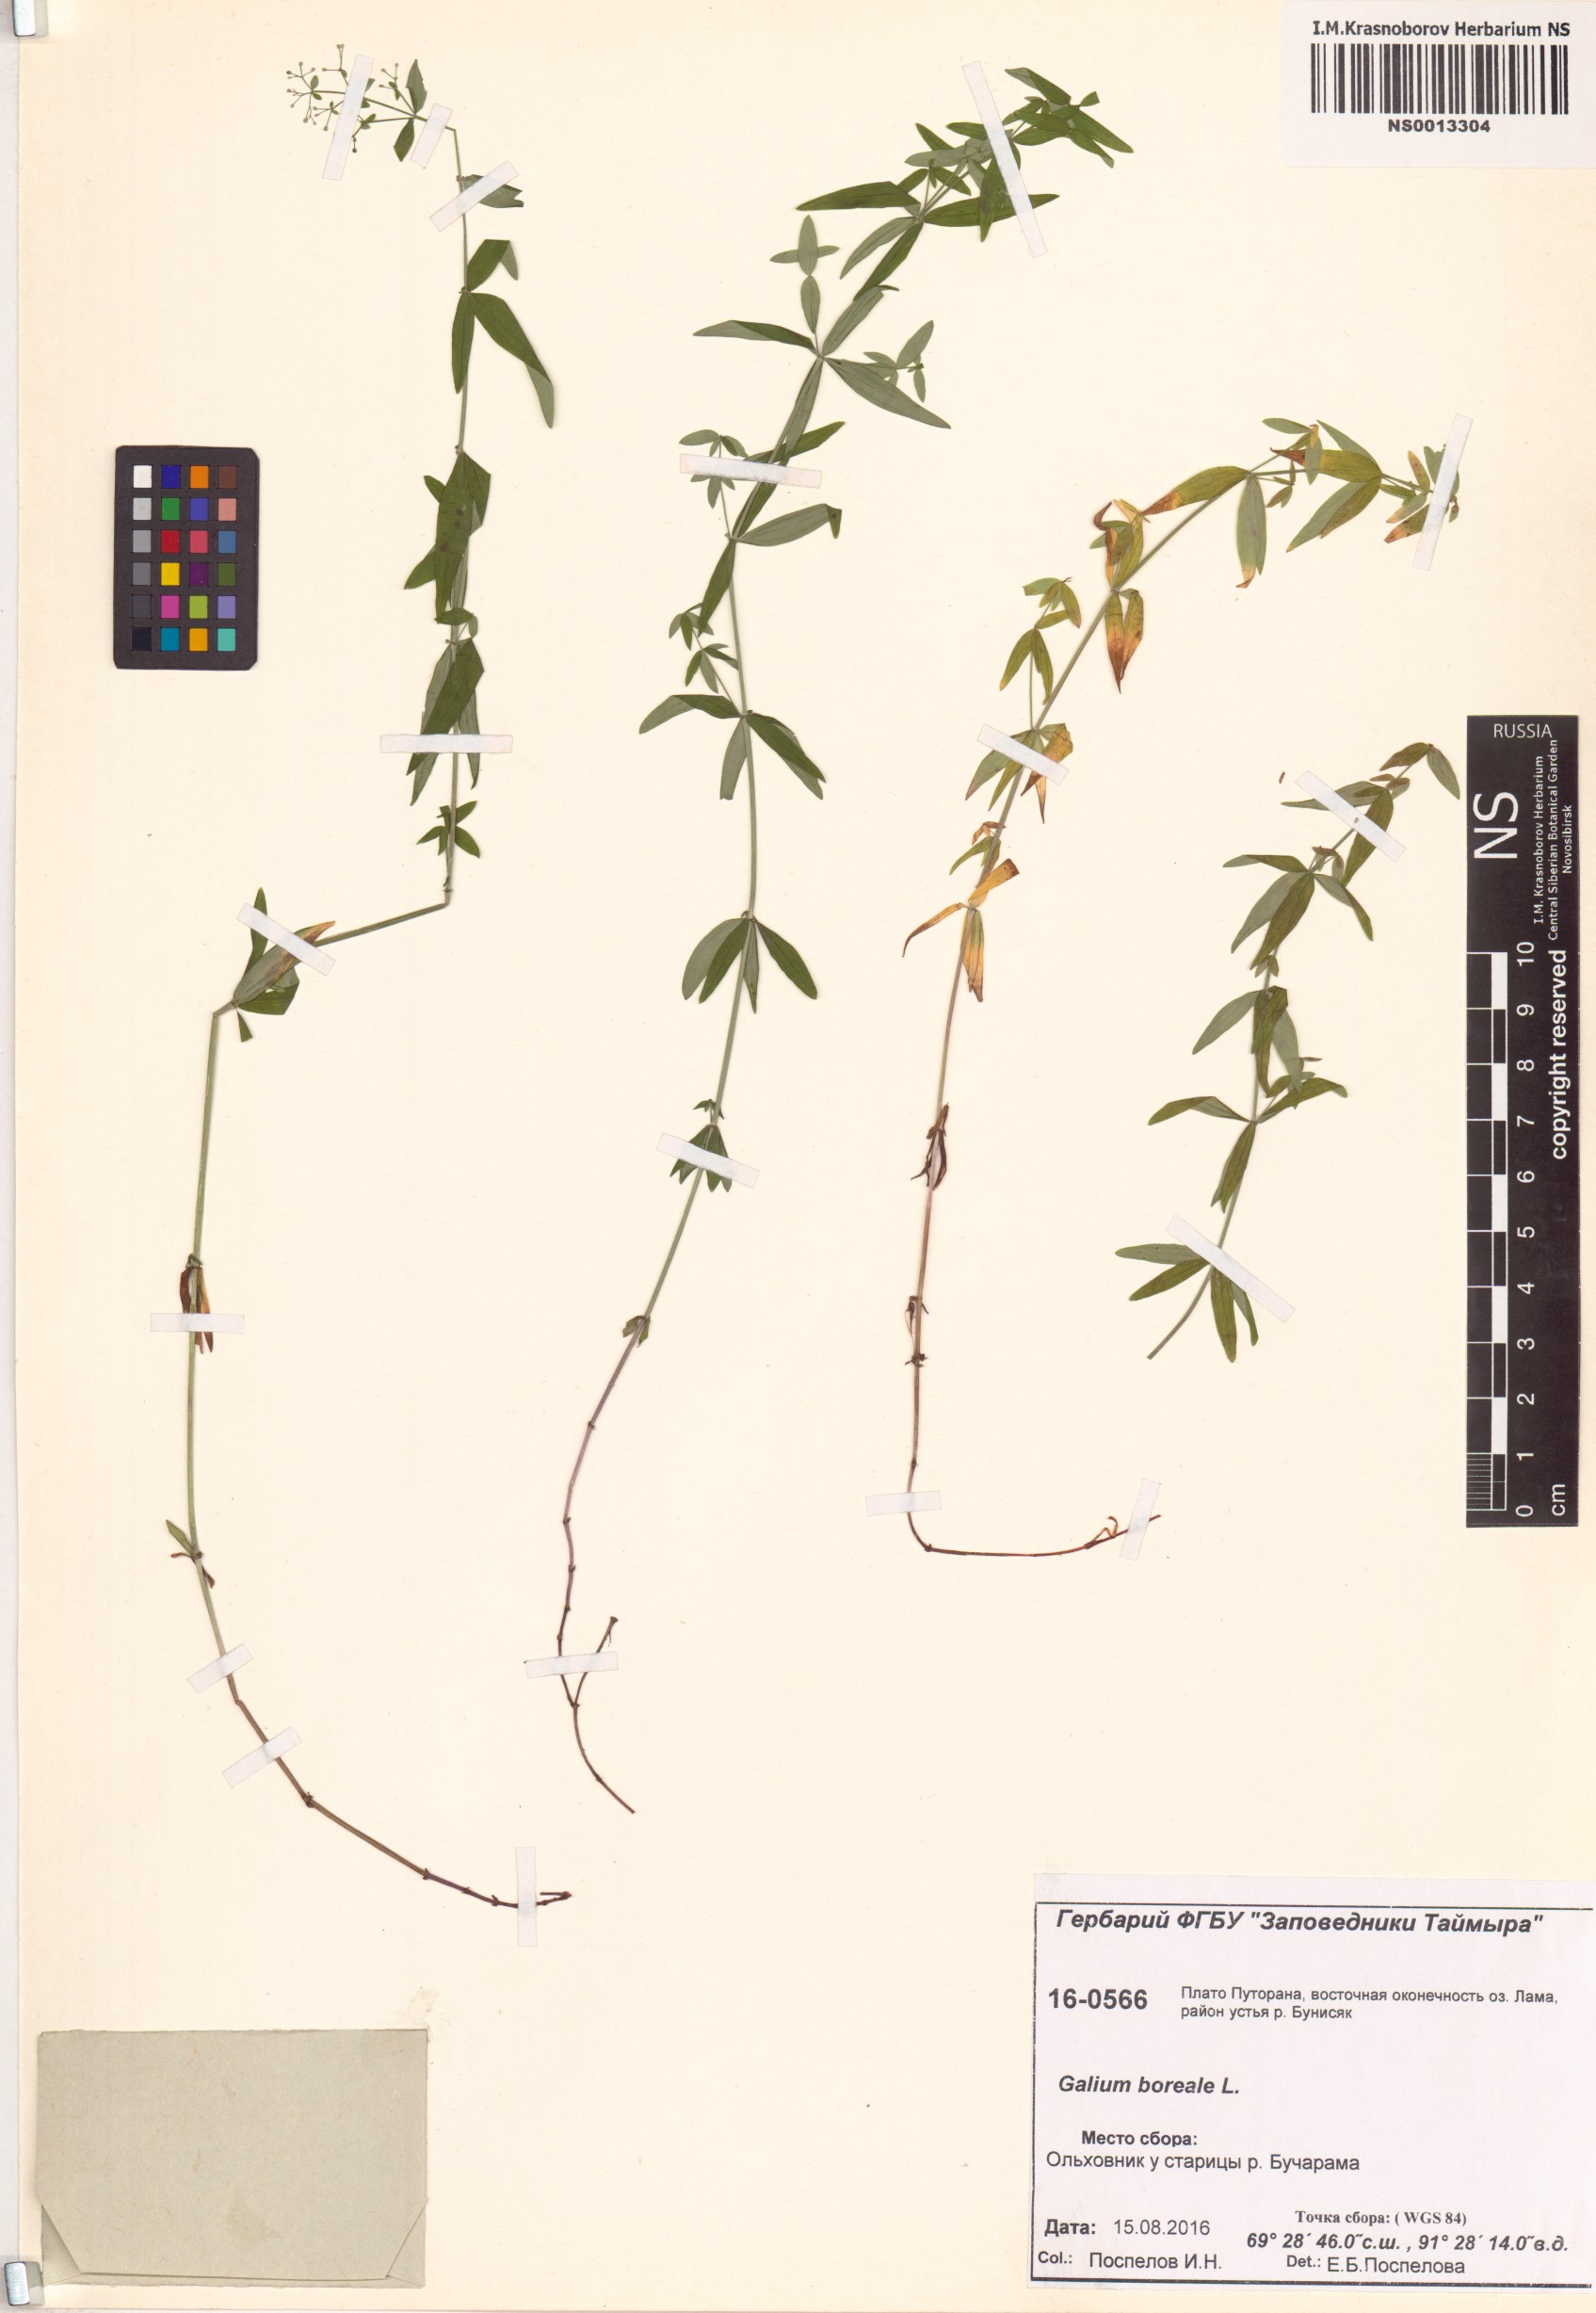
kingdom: Plantae
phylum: Tracheophyta
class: Magnoliopsida
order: Gentianales
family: Rubiaceae
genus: Galium
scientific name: Galium boreale
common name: Northern bedstraw
